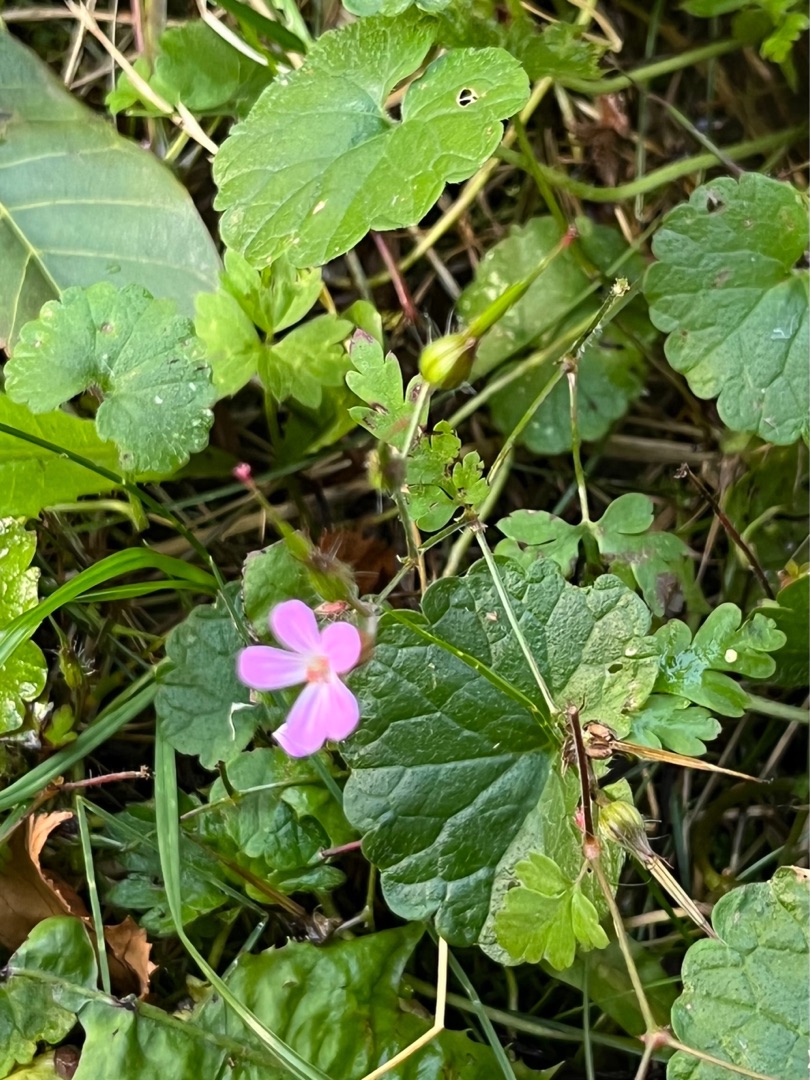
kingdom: Plantae
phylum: Tracheophyta
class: Magnoliopsida
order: Geraniales
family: Geraniaceae
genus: Geranium
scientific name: Geranium robertianum
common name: Stinkende storkenæb
